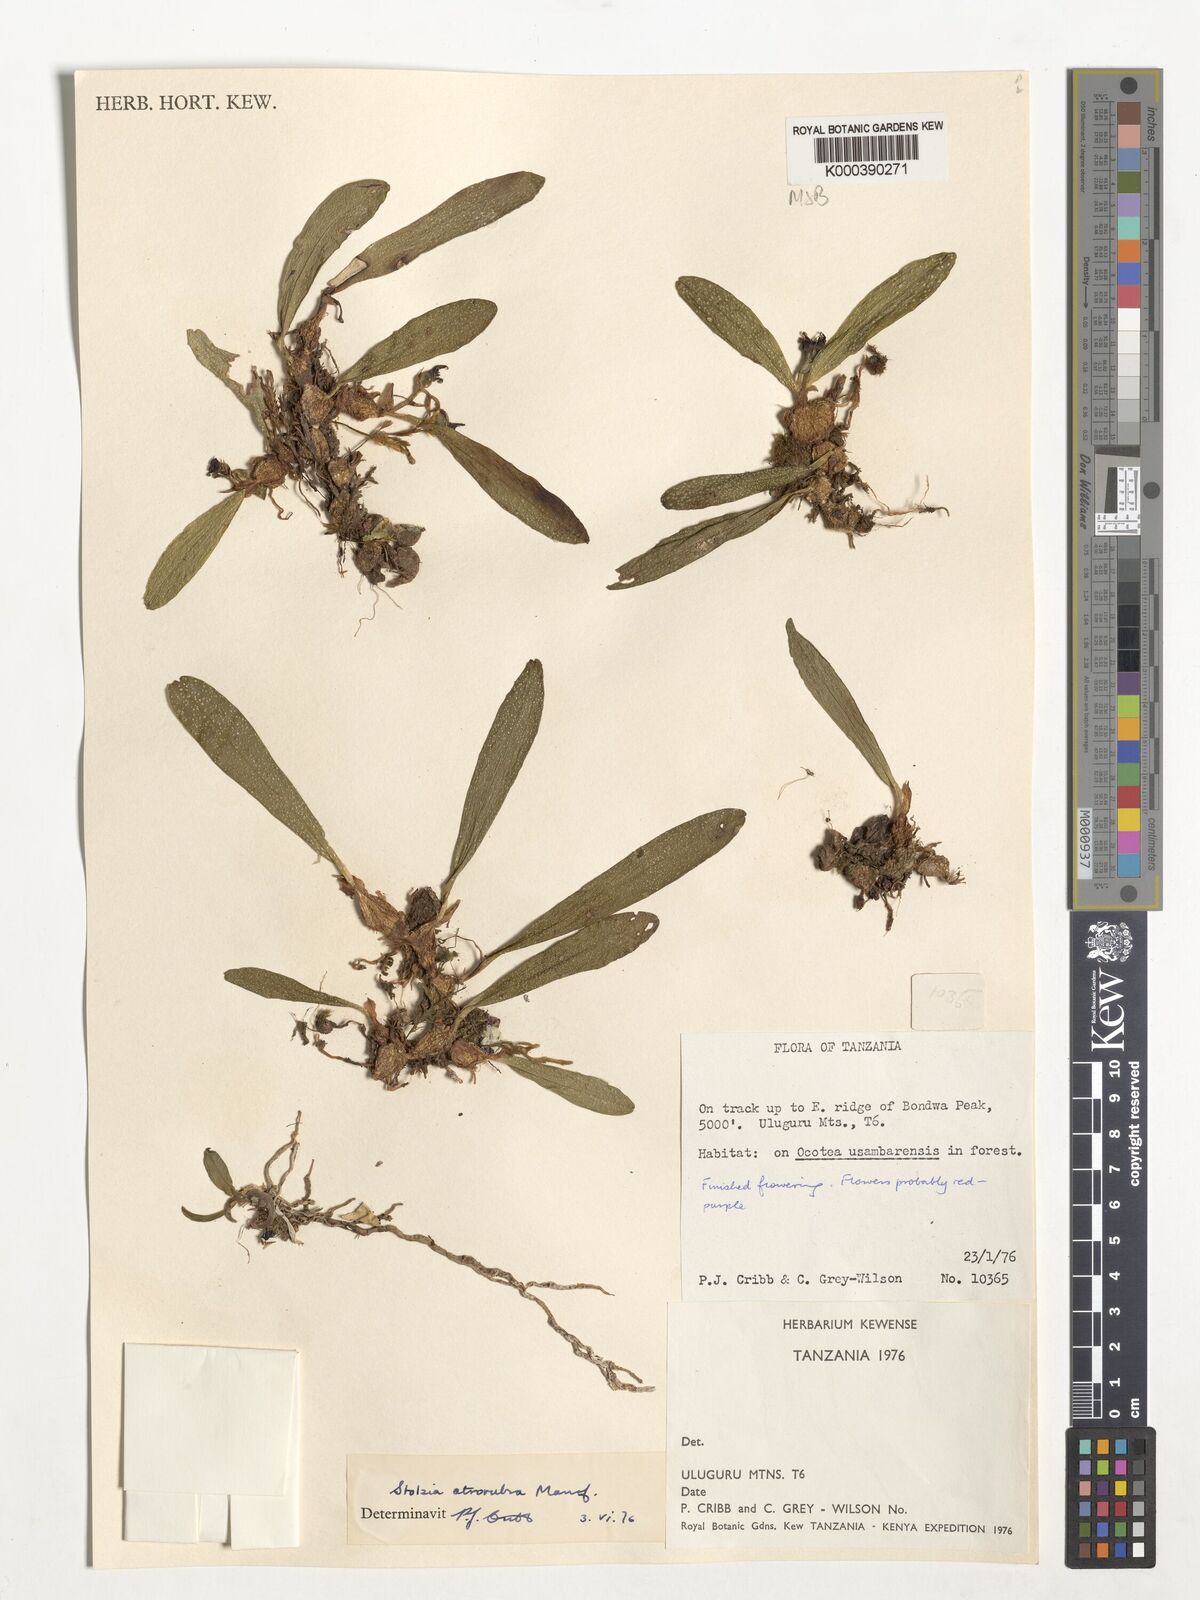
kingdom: Plantae
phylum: Tracheophyta
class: Liliopsida
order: Asparagales
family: Orchidaceae
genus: Porpax
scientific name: Porpax atrorubra
